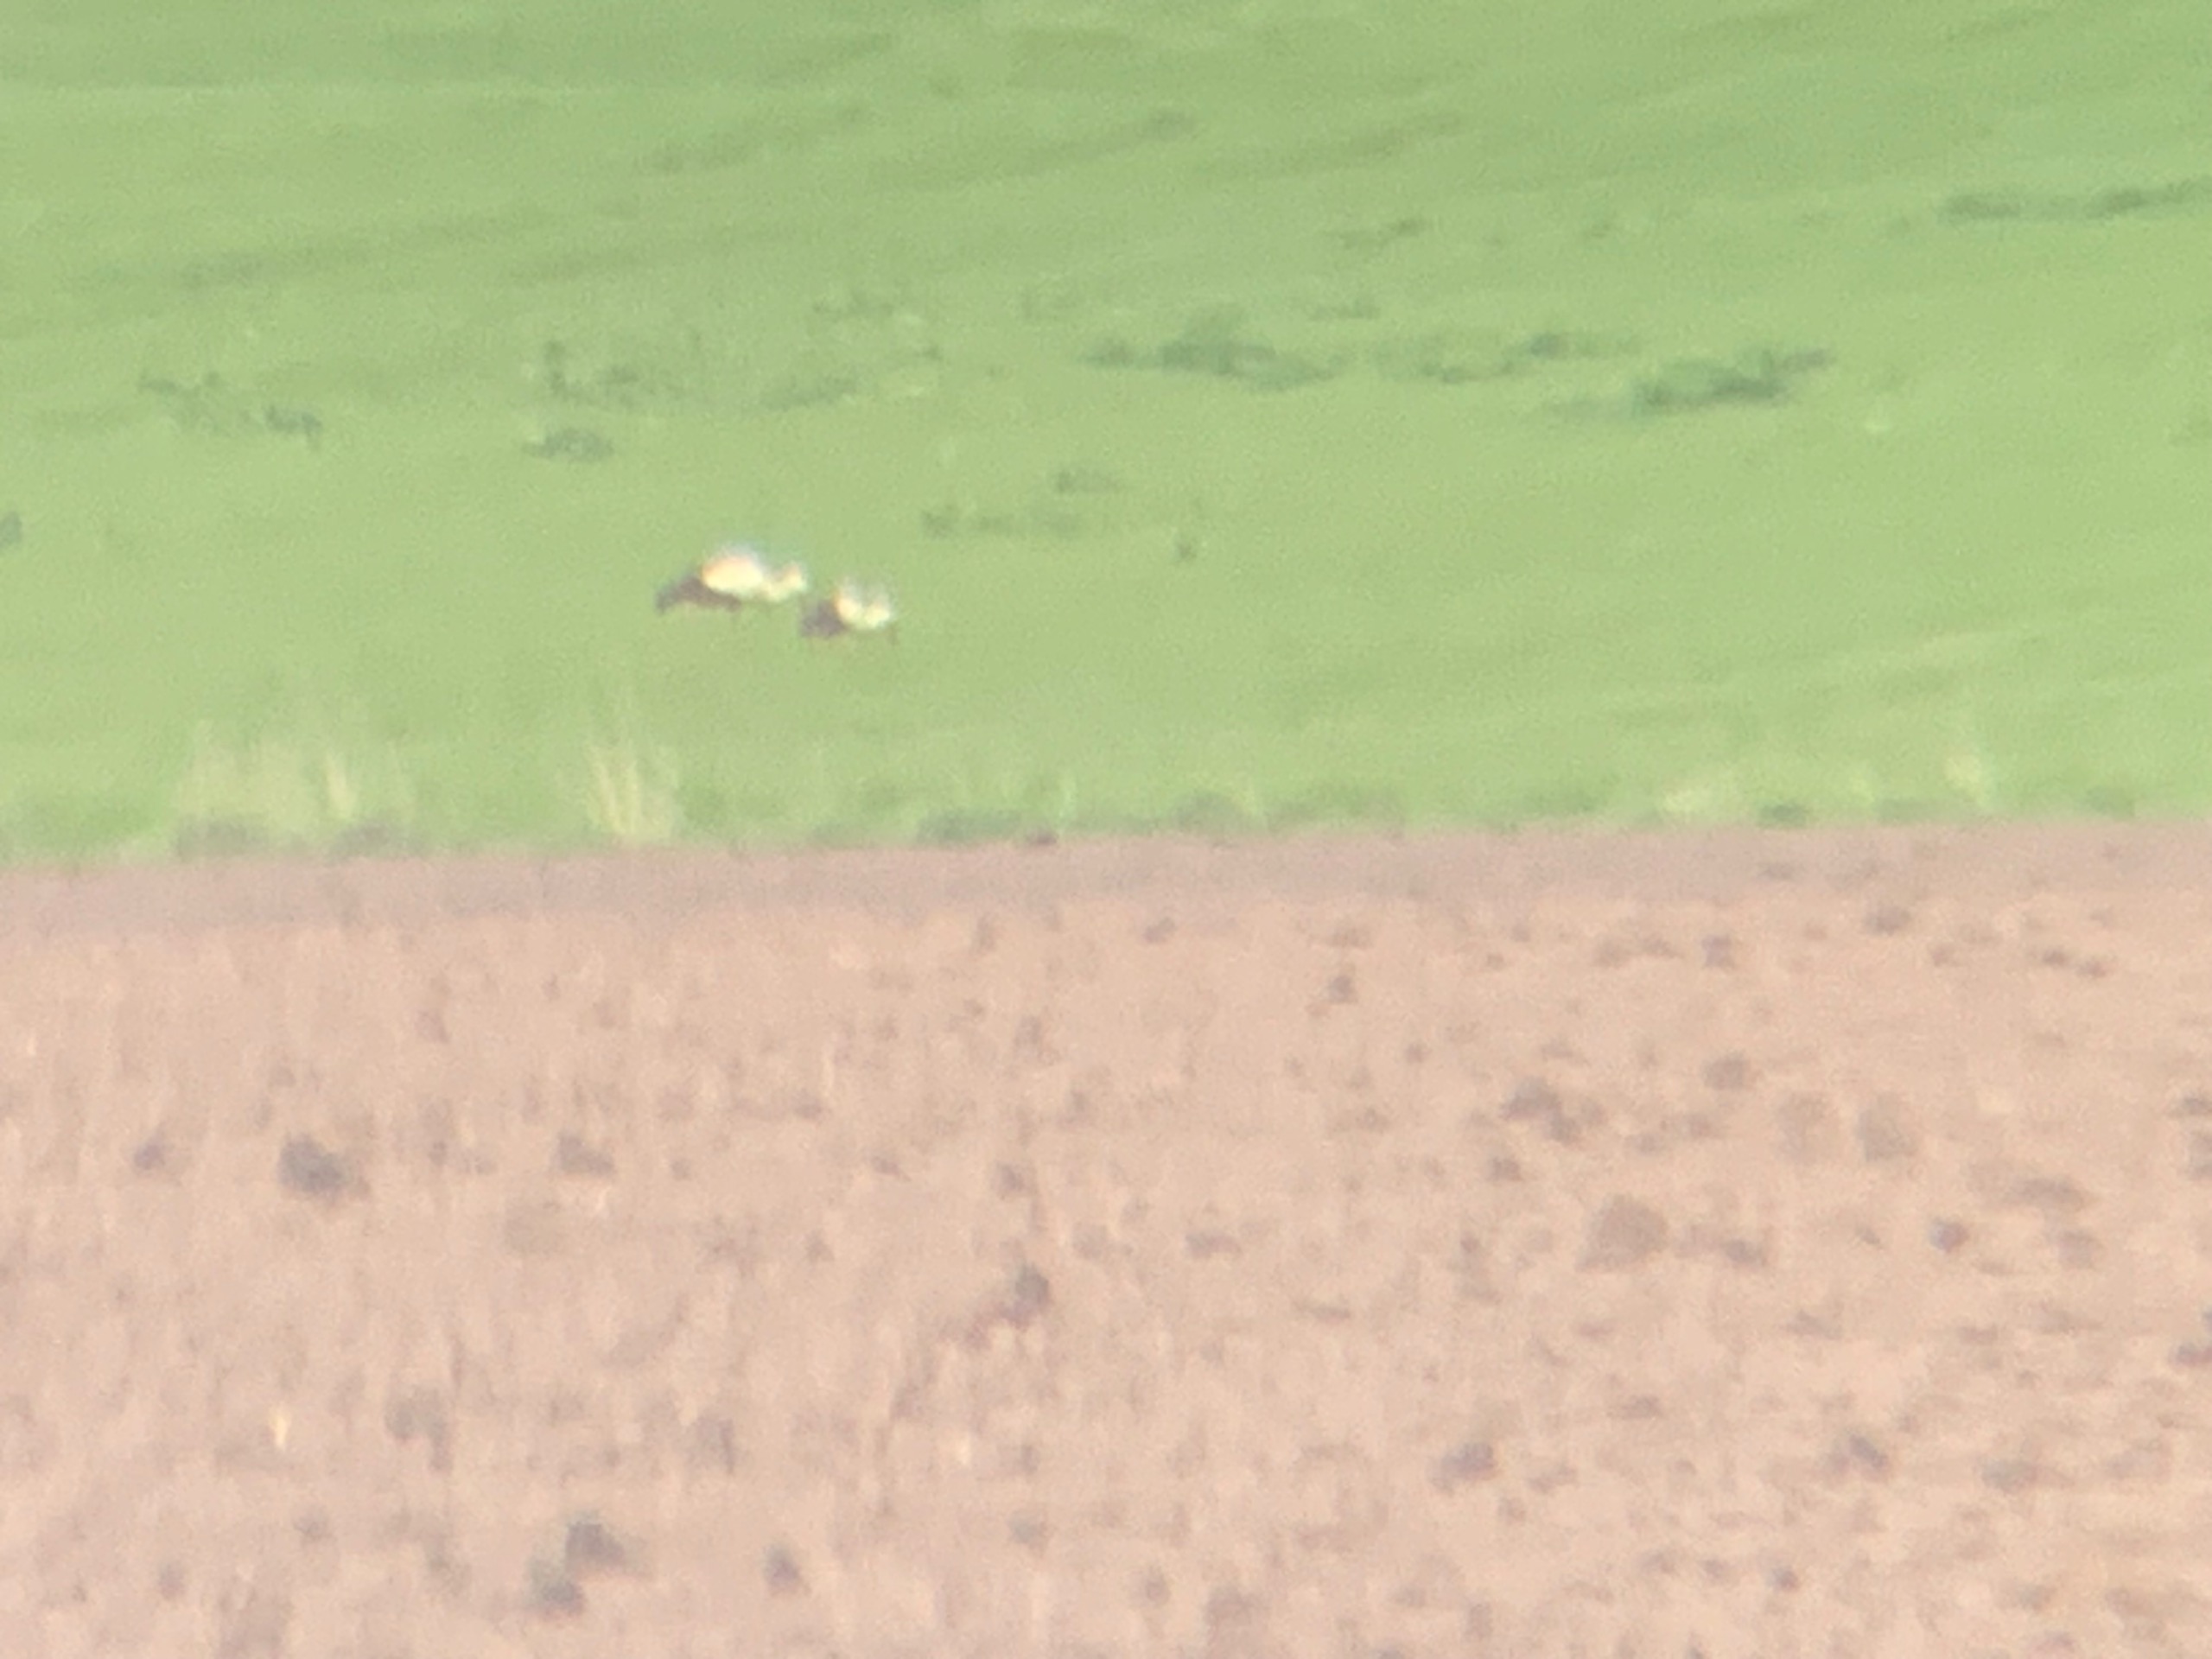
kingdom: Animalia
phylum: Chordata
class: Aves
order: Ciconiiformes
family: Ciconiidae
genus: Ciconia
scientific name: Ciconia ciconia
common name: Hvid stork
